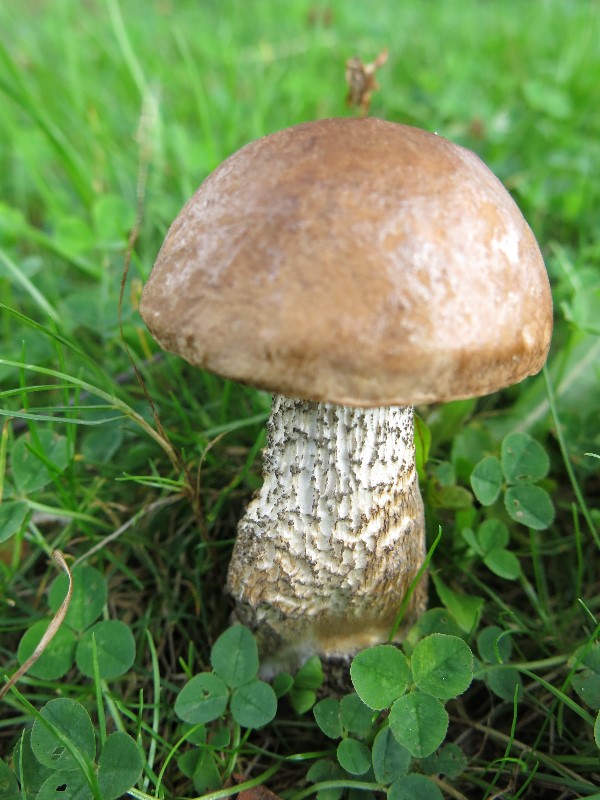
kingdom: Fungi
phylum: Basidiomycota
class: Agaricomycetes
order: Boletales
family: Boletaceae
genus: Leccinum
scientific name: Leccinum scabrum
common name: brun skælrørhat
